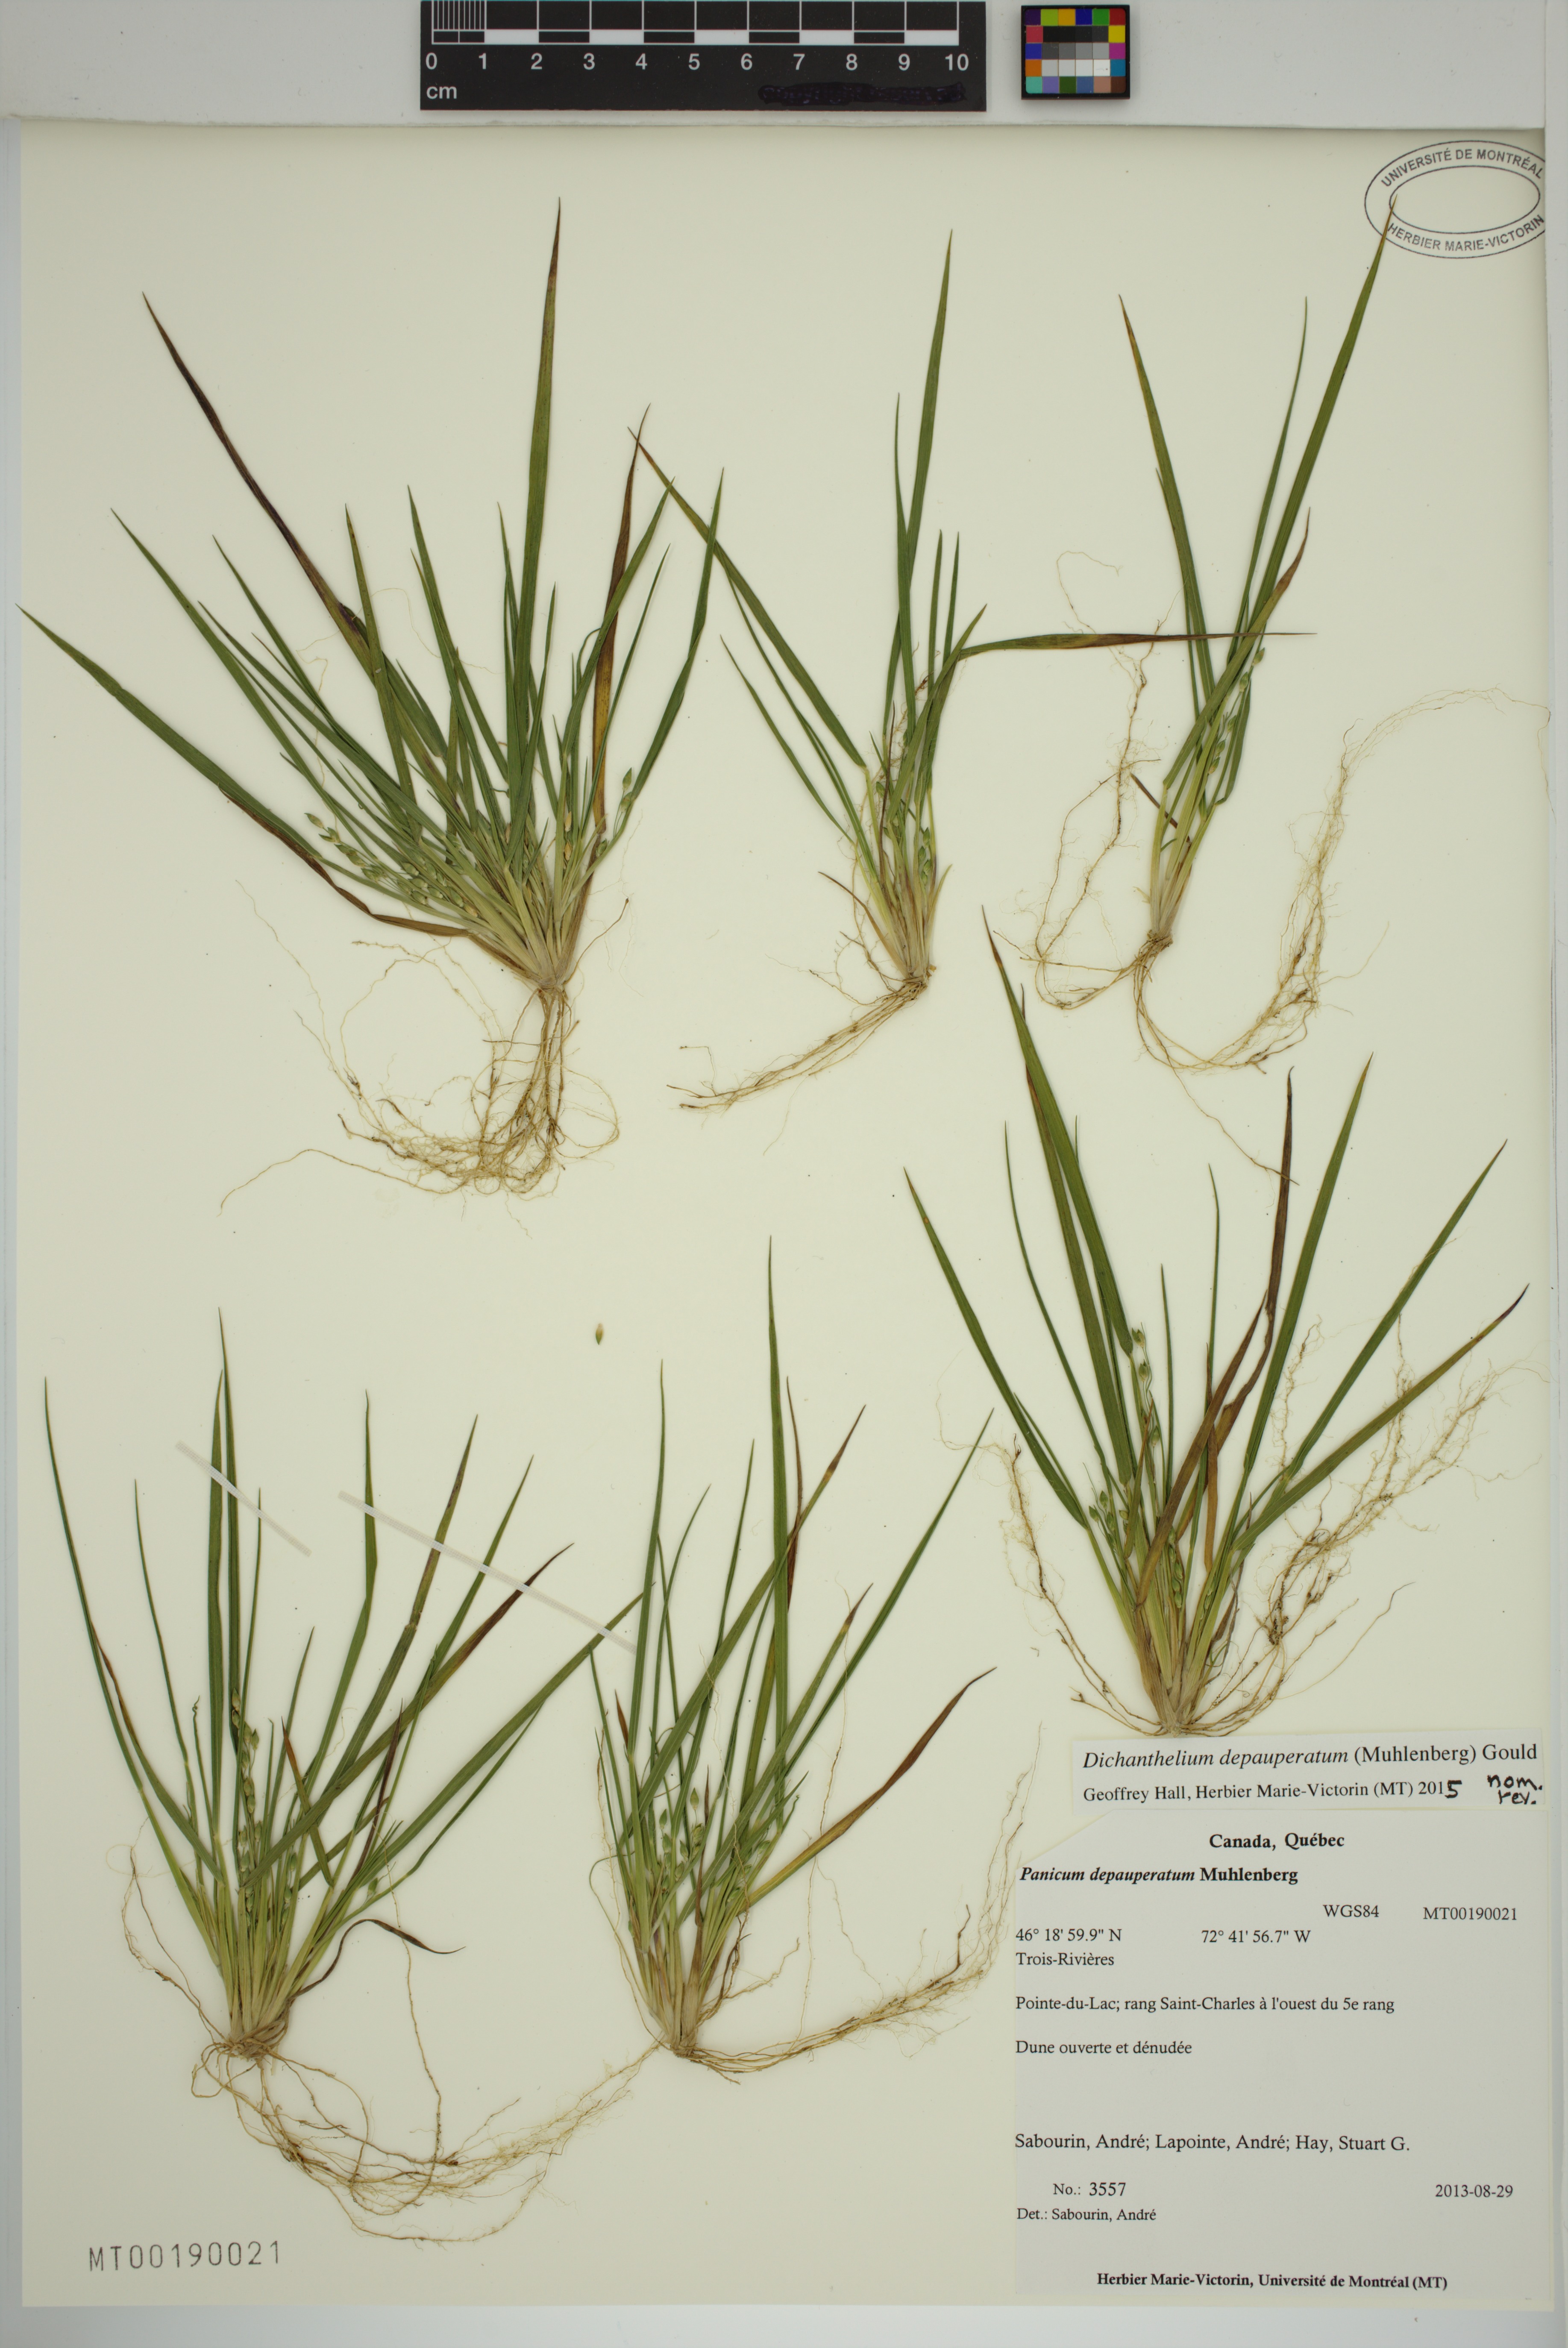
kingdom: Plantae
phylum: Tracheophyta
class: Liliopsida
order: Poales
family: Poaceae
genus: Dichanthelium
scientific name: Dichanthelium depauperatum
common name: Depauperate panicgrass
